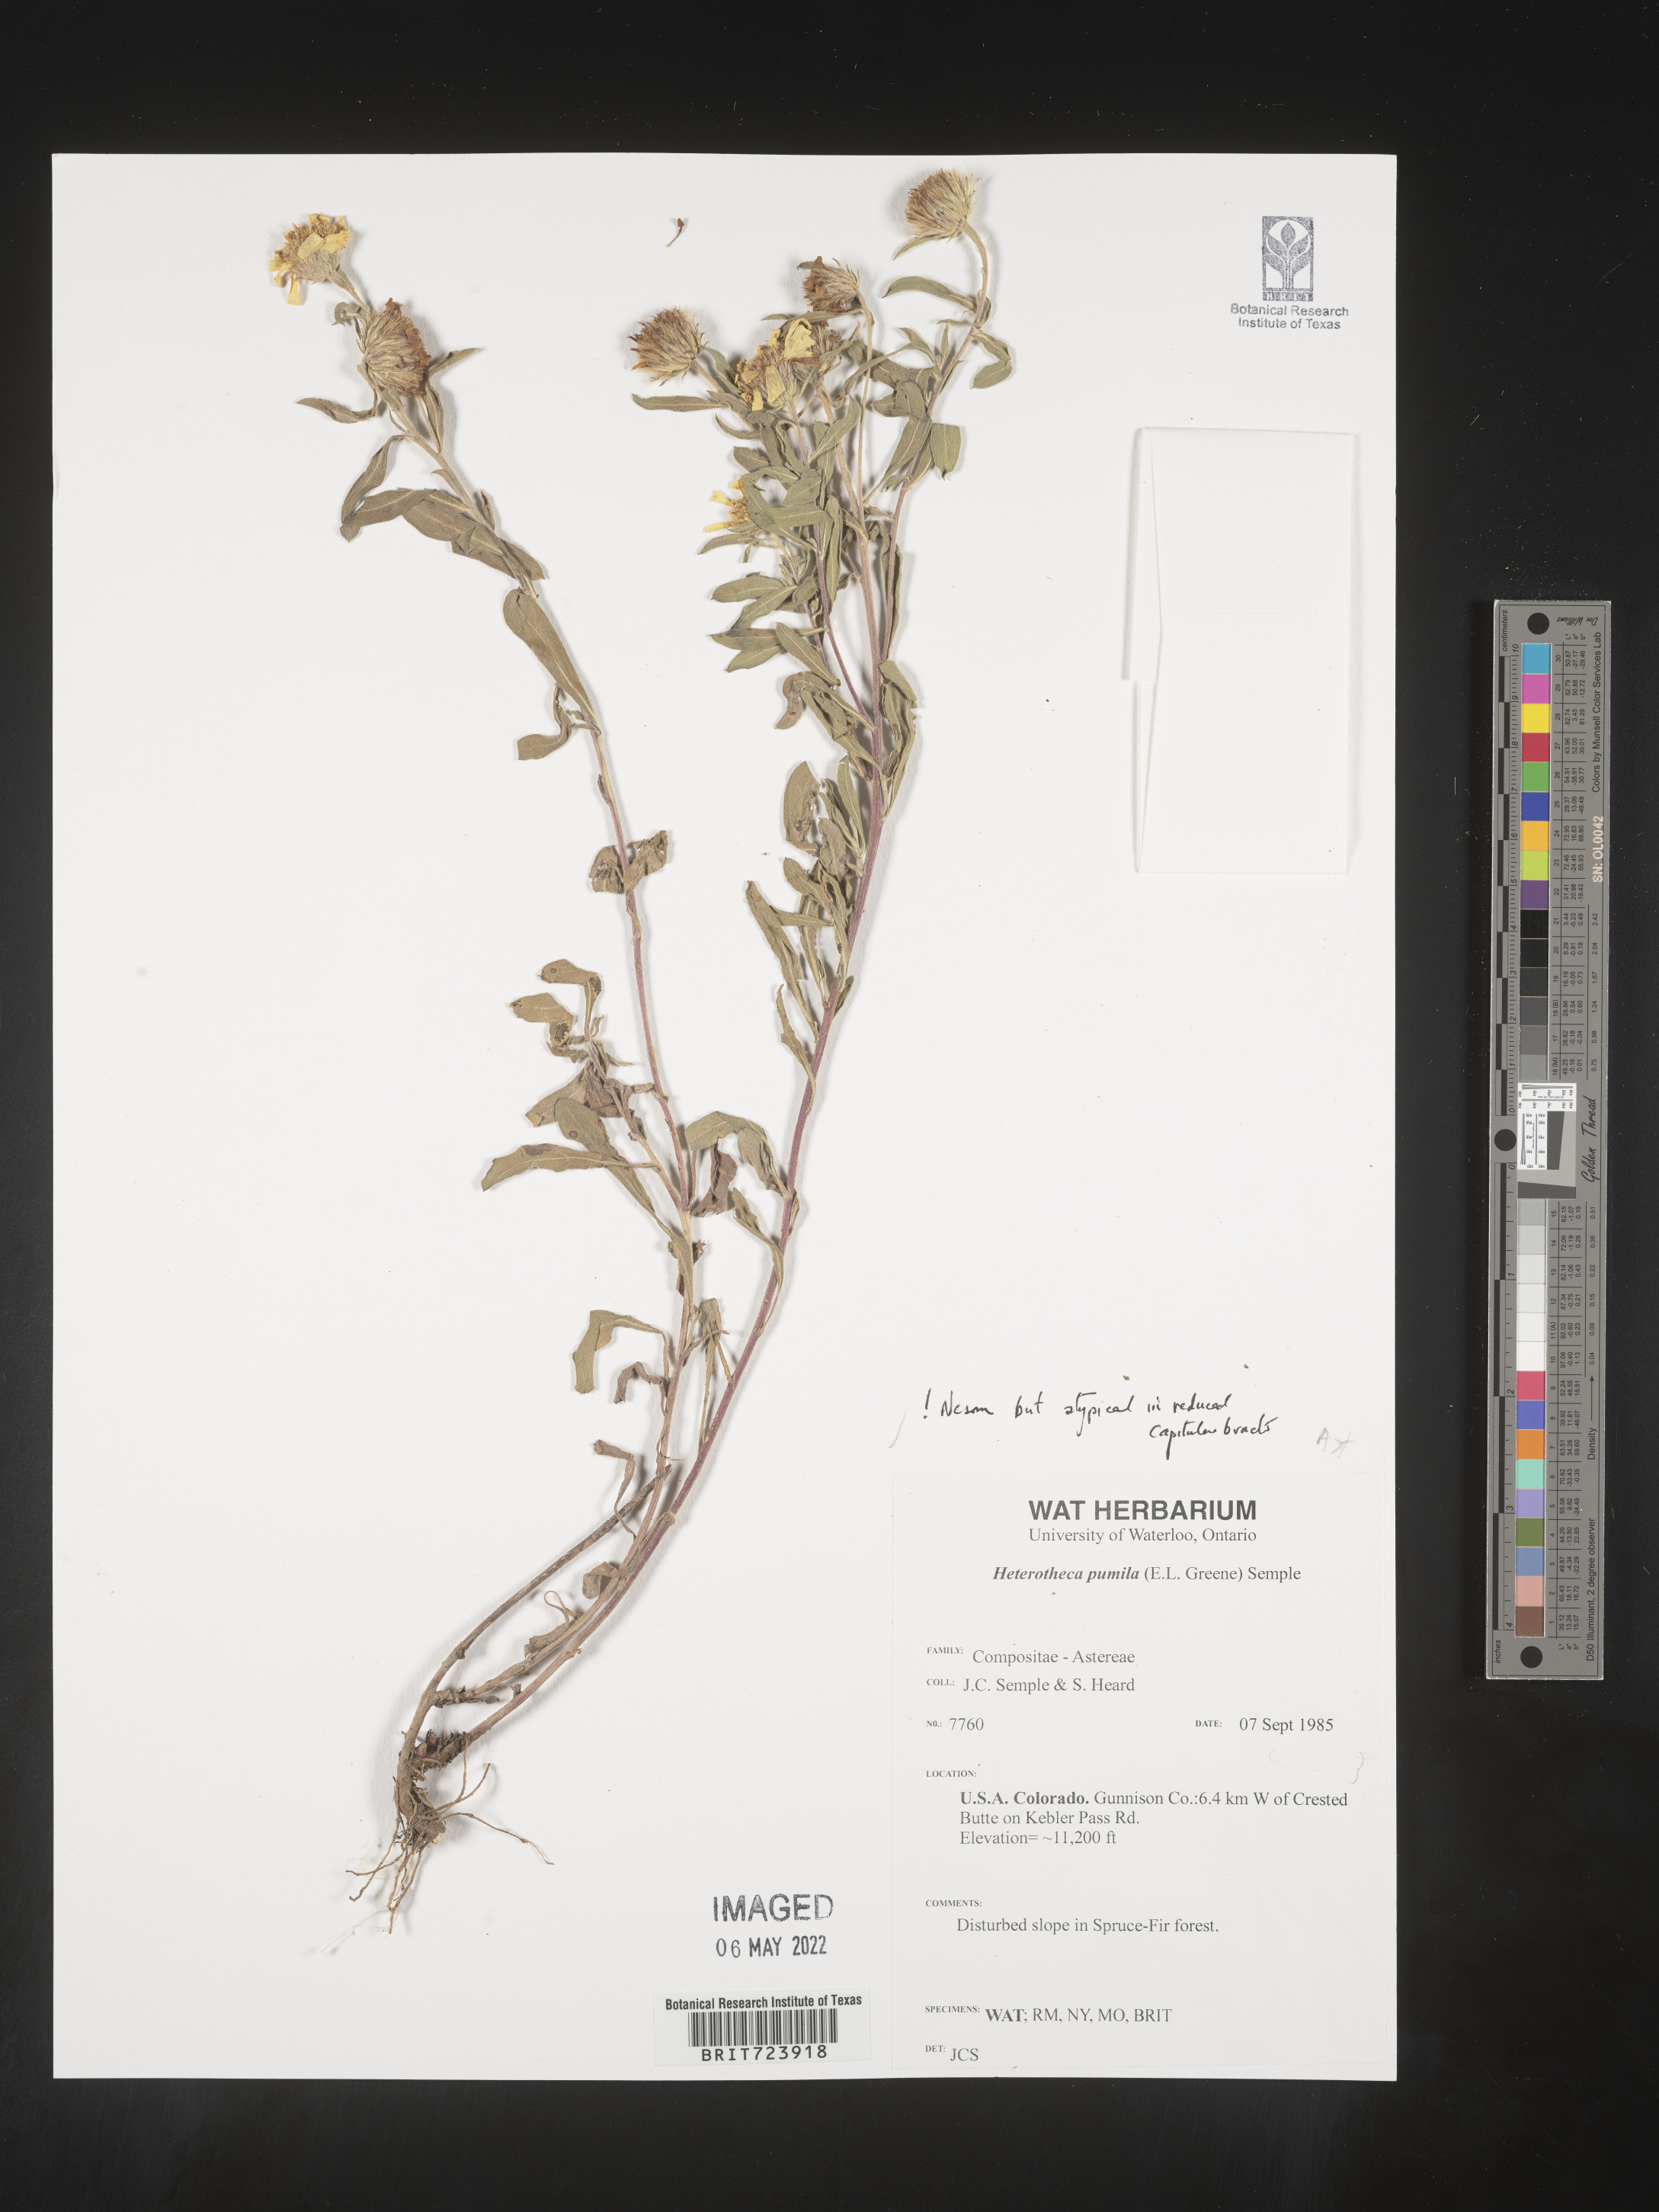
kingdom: Plantae
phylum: Tracheophyta
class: Magnoliopsida
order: Asterales
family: Asteraceae
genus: Heterotheca
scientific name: Heterotheca pumila
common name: Alpine golden-aster
